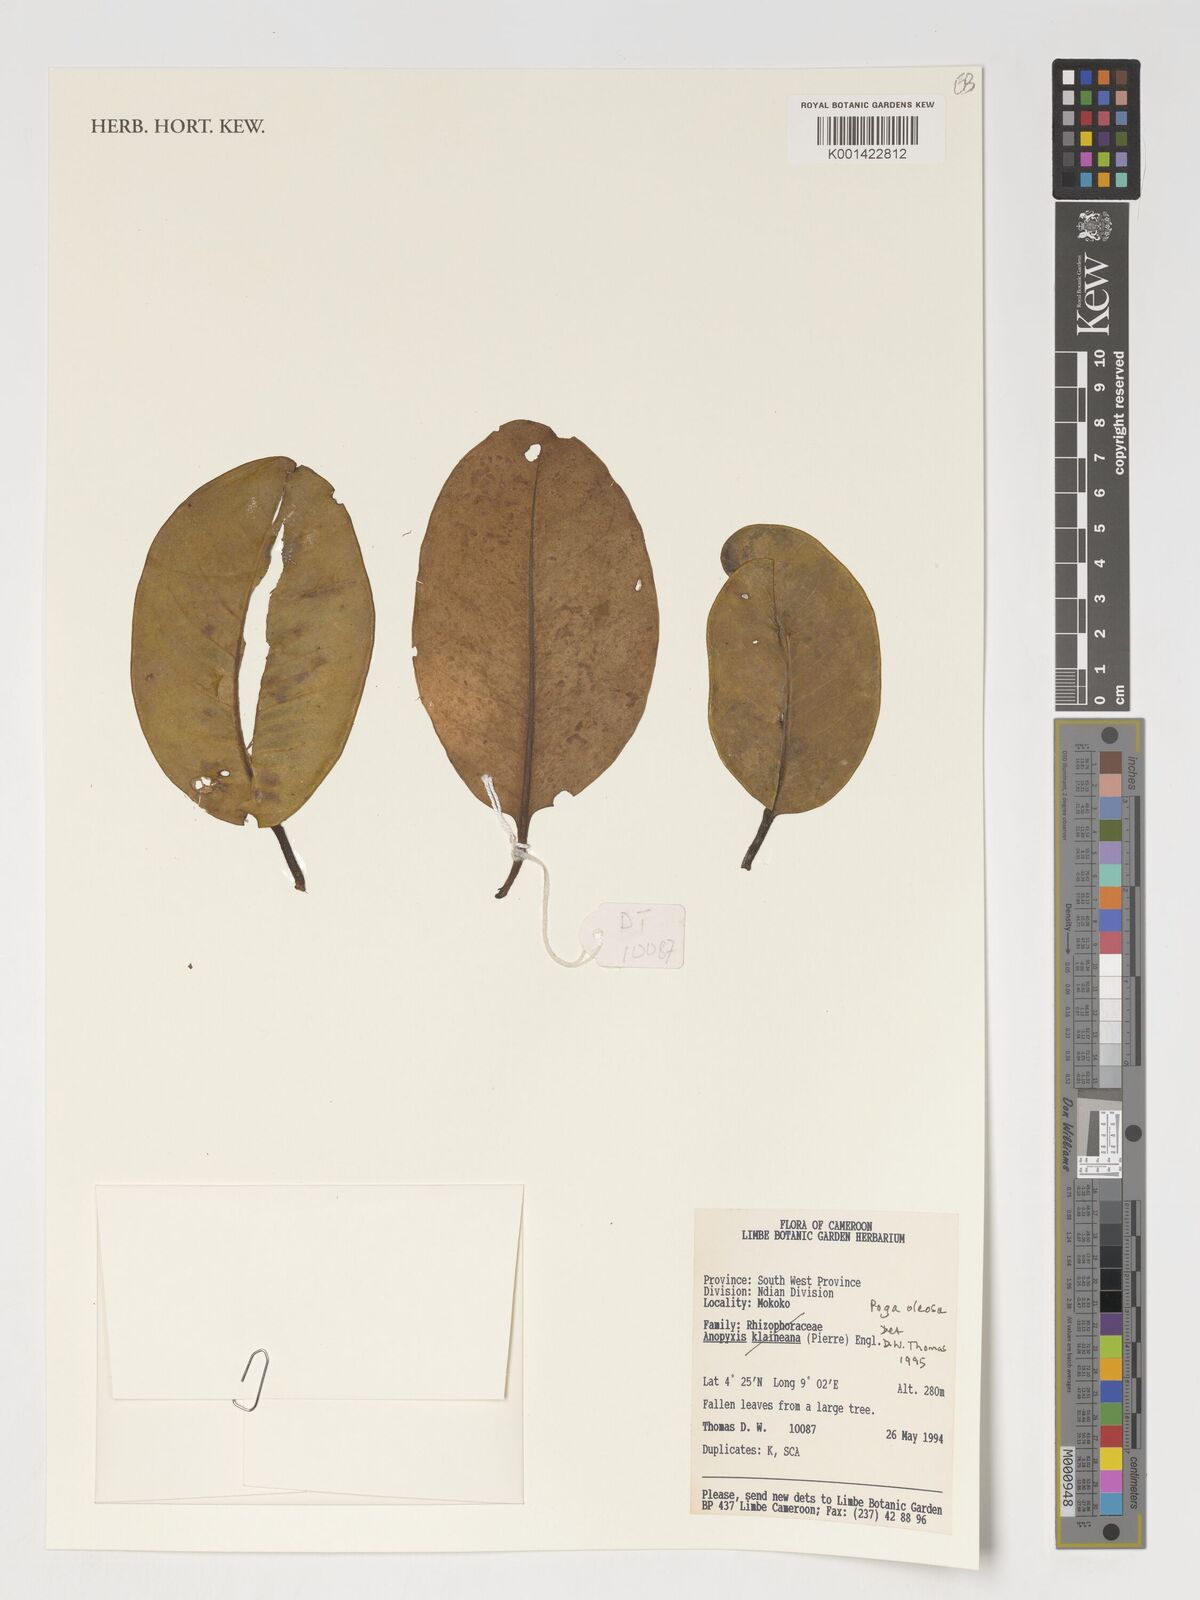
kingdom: Plantae
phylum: Tracheophyta
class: Magnoliopsida
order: Cucurbitales
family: Anisophylleaceae
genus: Poga
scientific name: Poga oleosa
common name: African brazil nut
